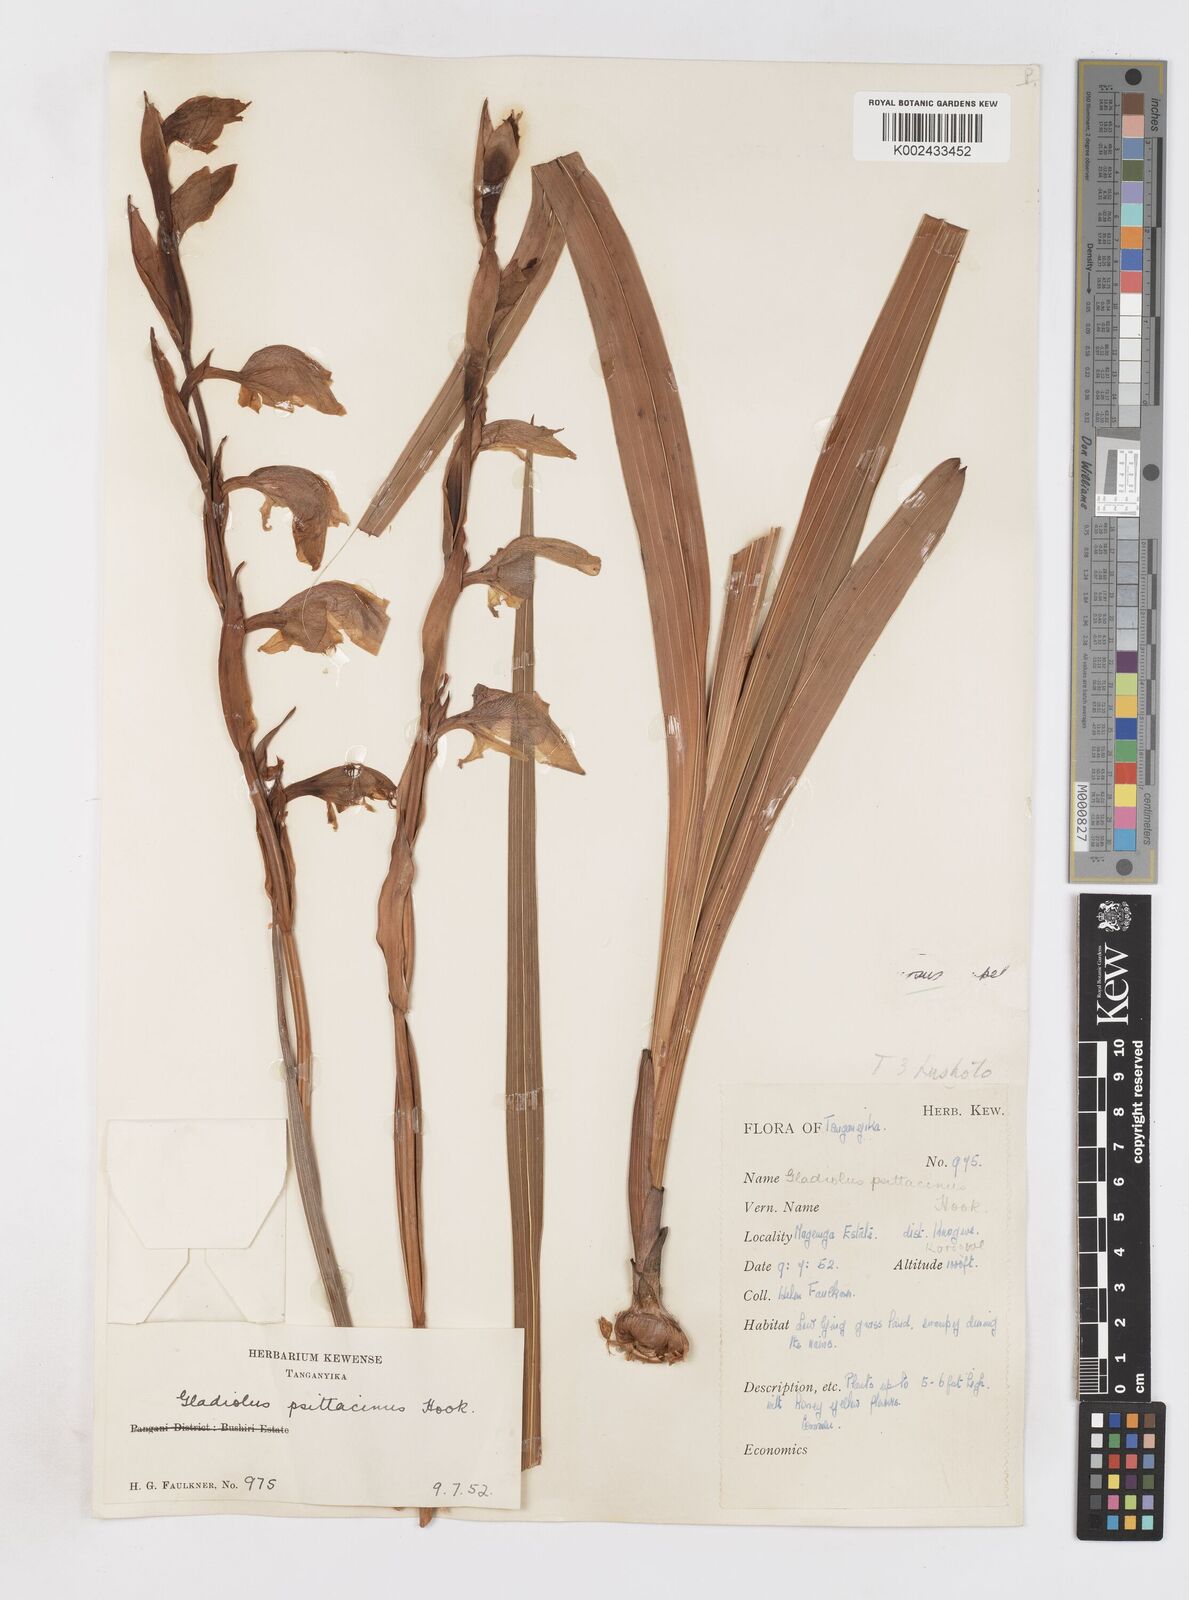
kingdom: Plantae
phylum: Tracheophyta
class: Liliopsida
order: Asparagales
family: Iridaceae
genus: Gladiolus
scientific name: Gladiolus dalenii
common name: Cornflag
